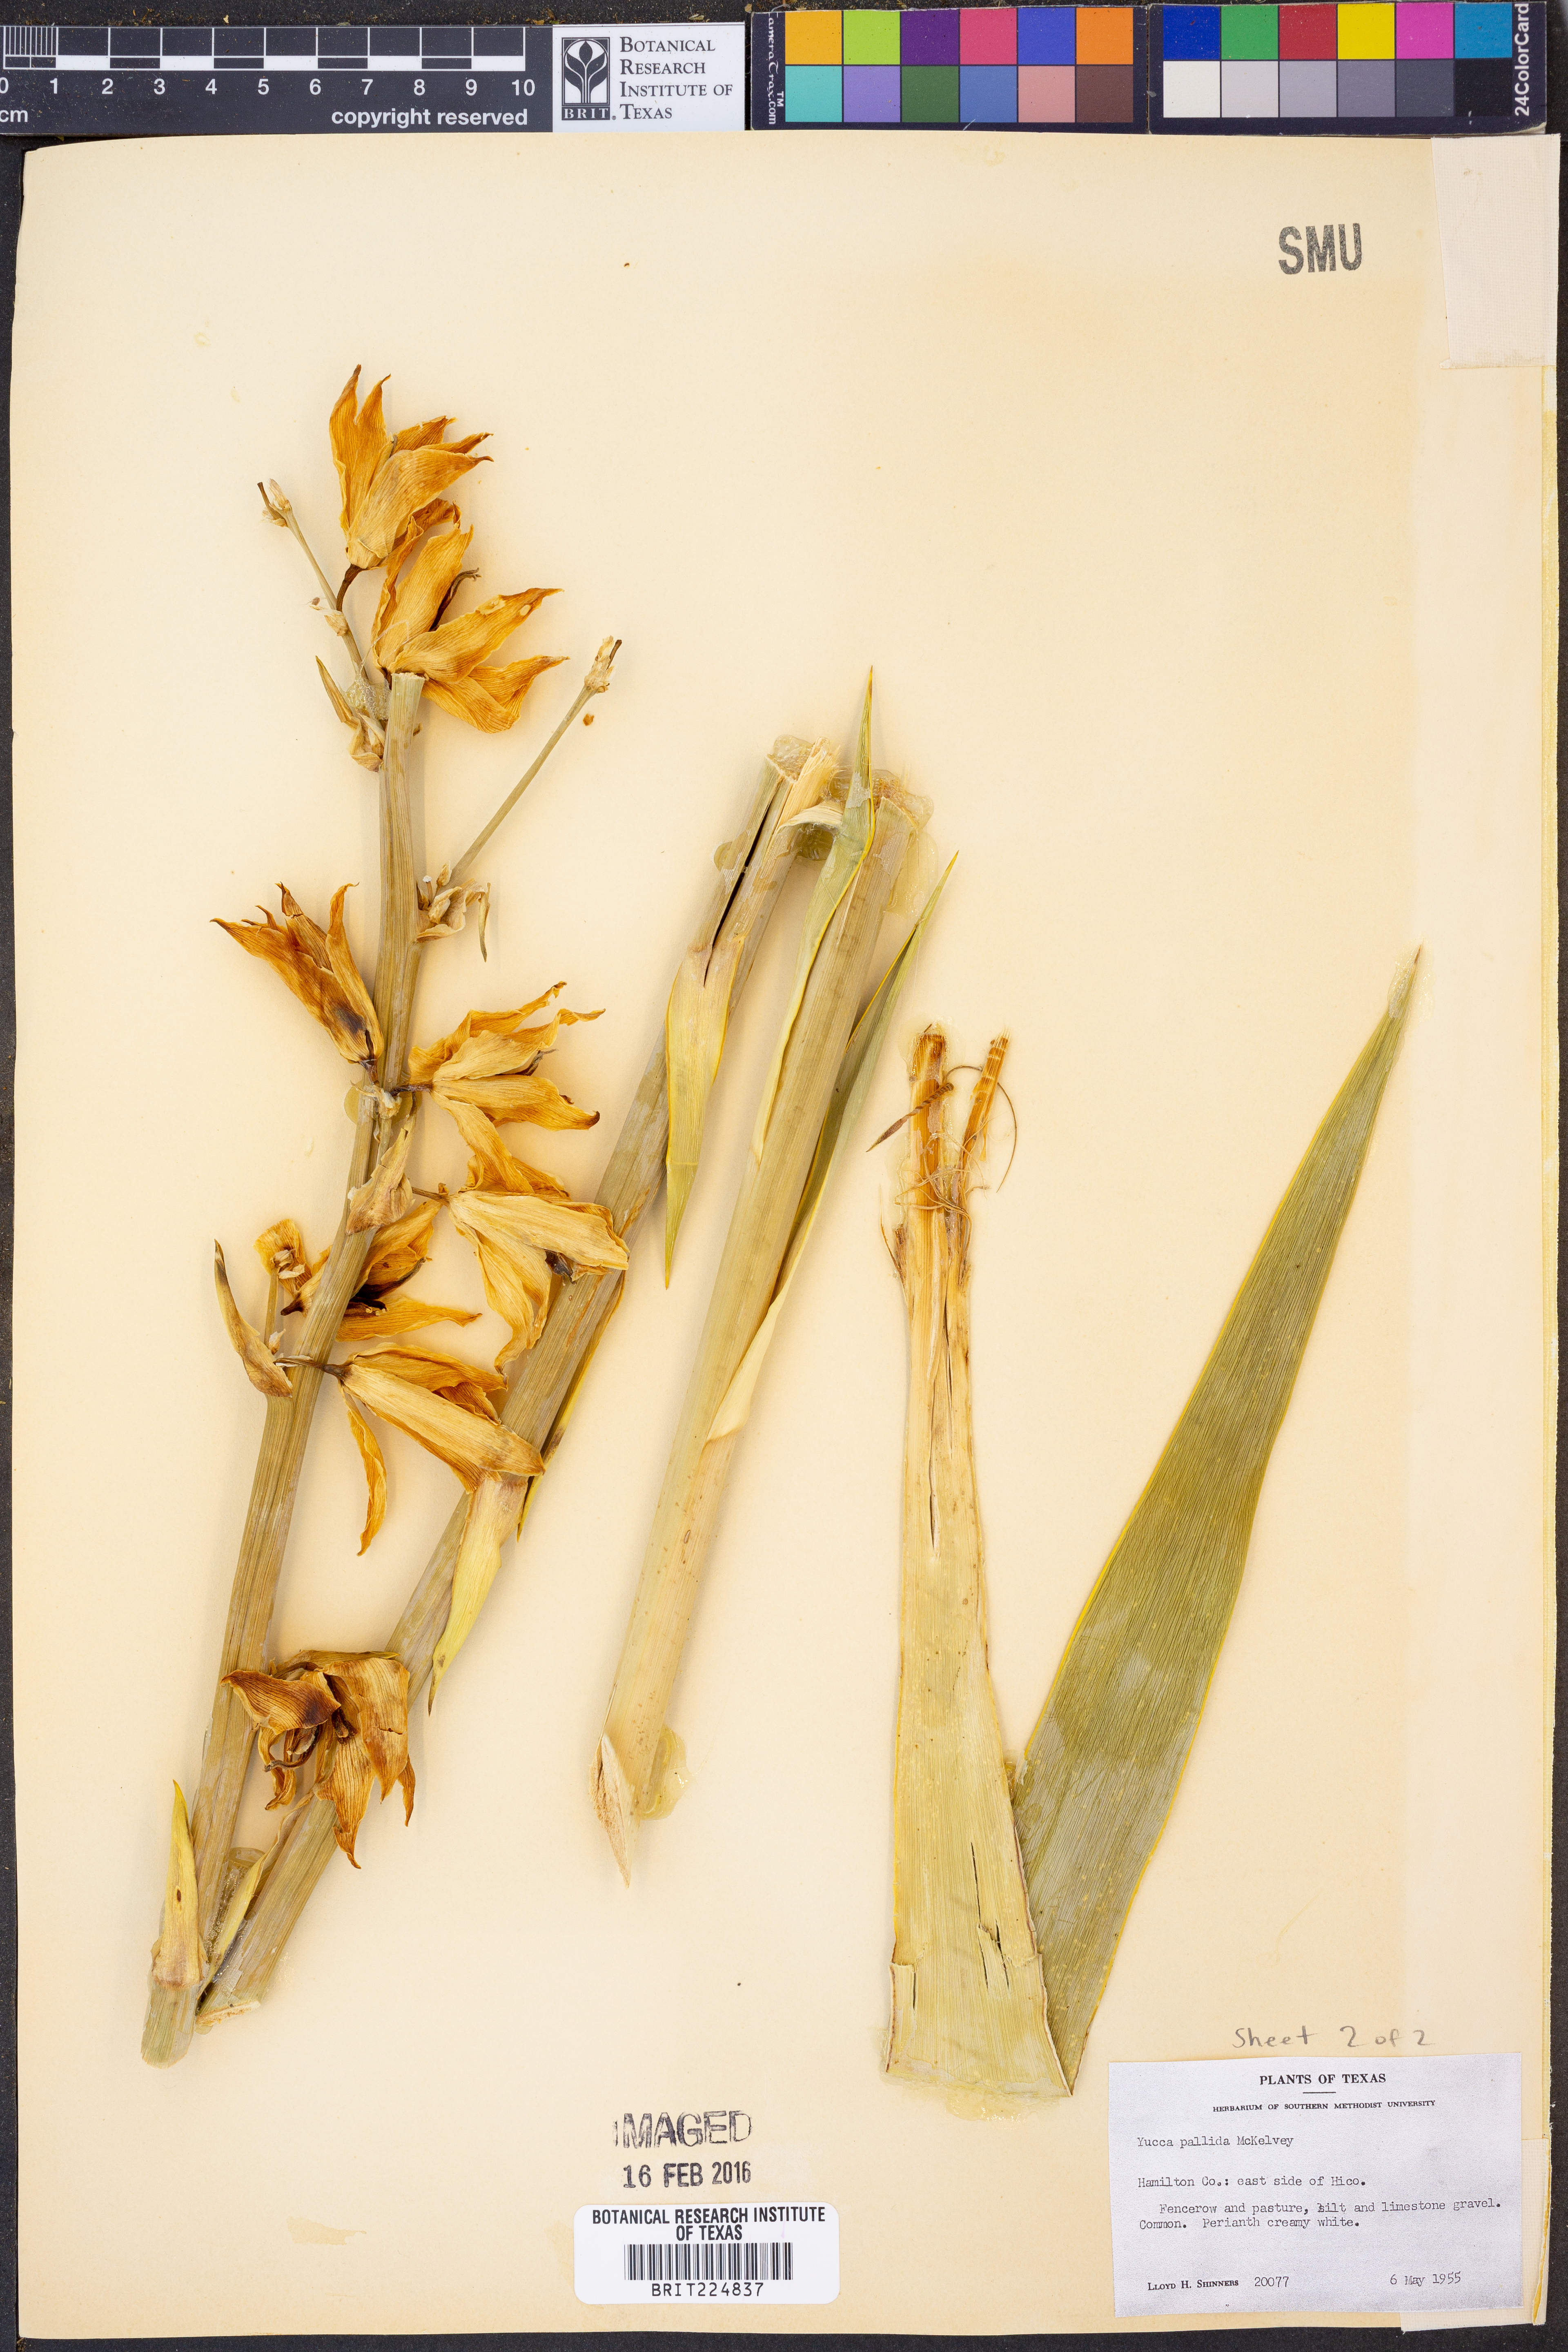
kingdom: Plantae
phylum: Tracheophyta
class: Liliopsida
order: Asparagales
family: Asparagaceae
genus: Yucca
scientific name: Yucca pallida
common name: Pale leaf yucca
